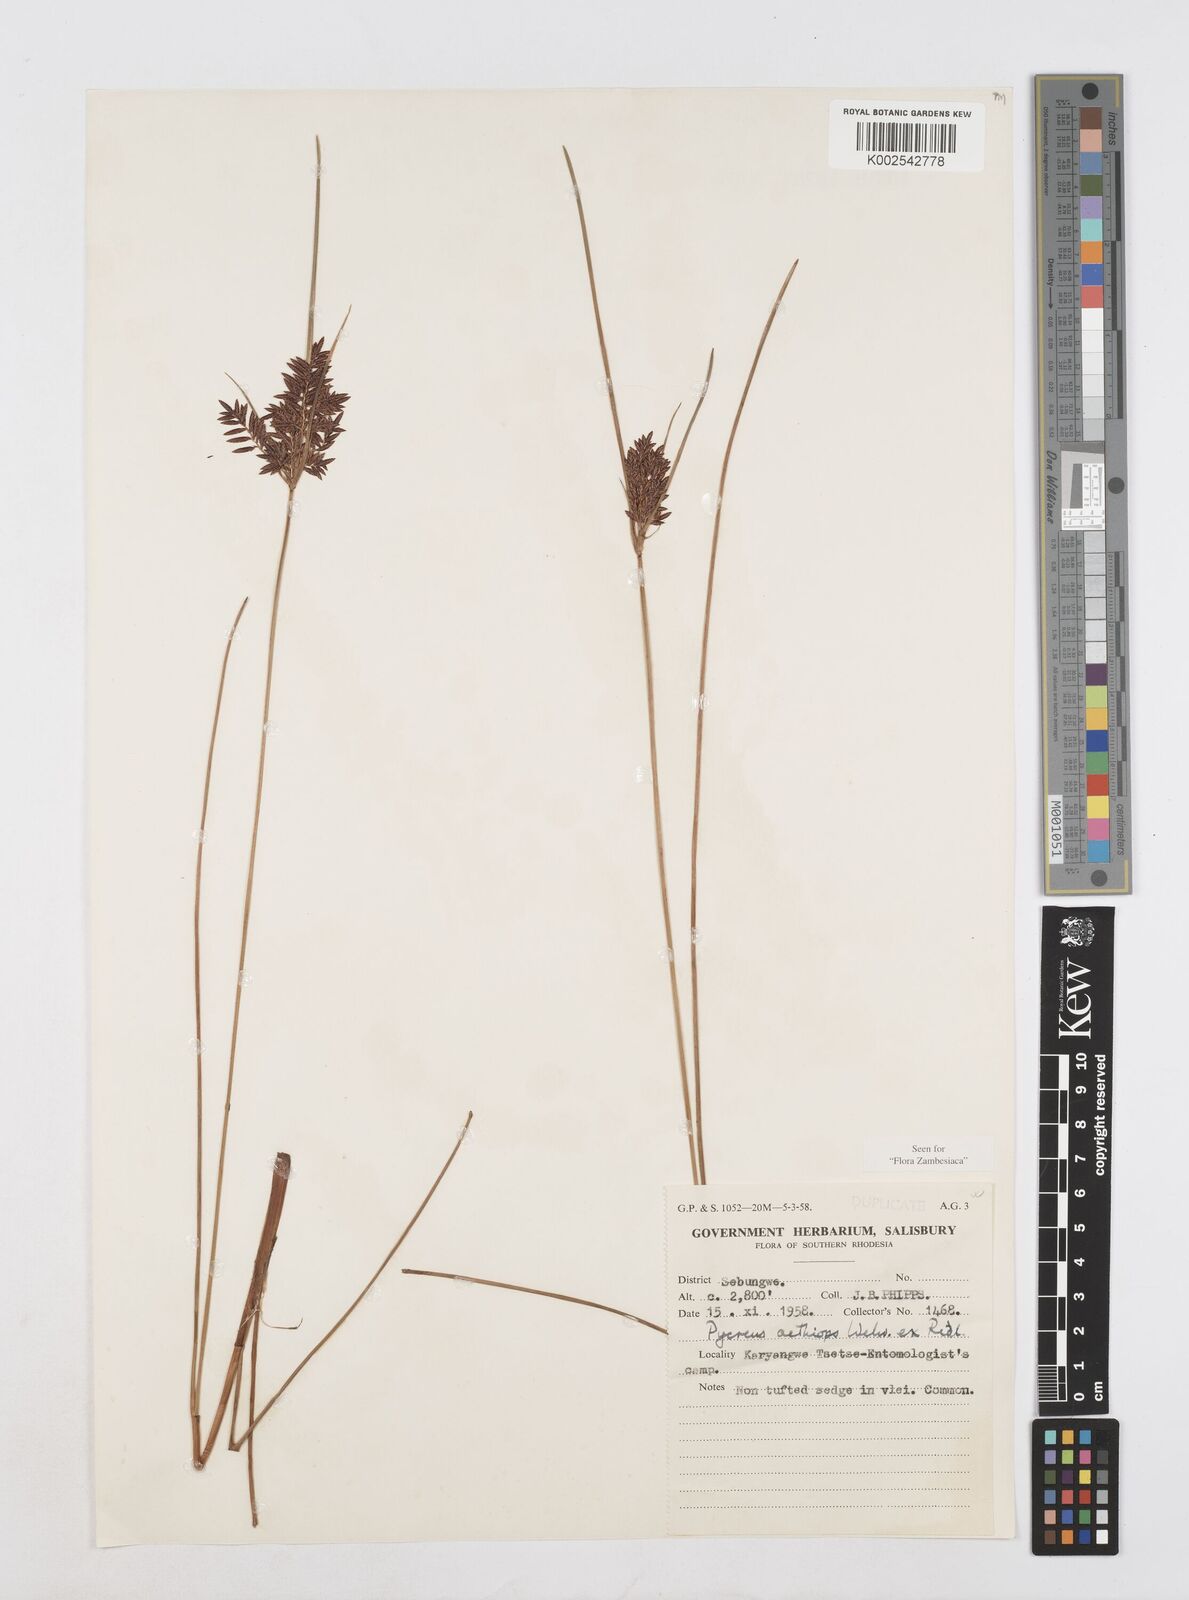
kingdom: Plantae
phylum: Tracheophyta
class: Liliopsida
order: Poales
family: Cyperaceae
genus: Cyperus
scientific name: Cyperus aethiops
